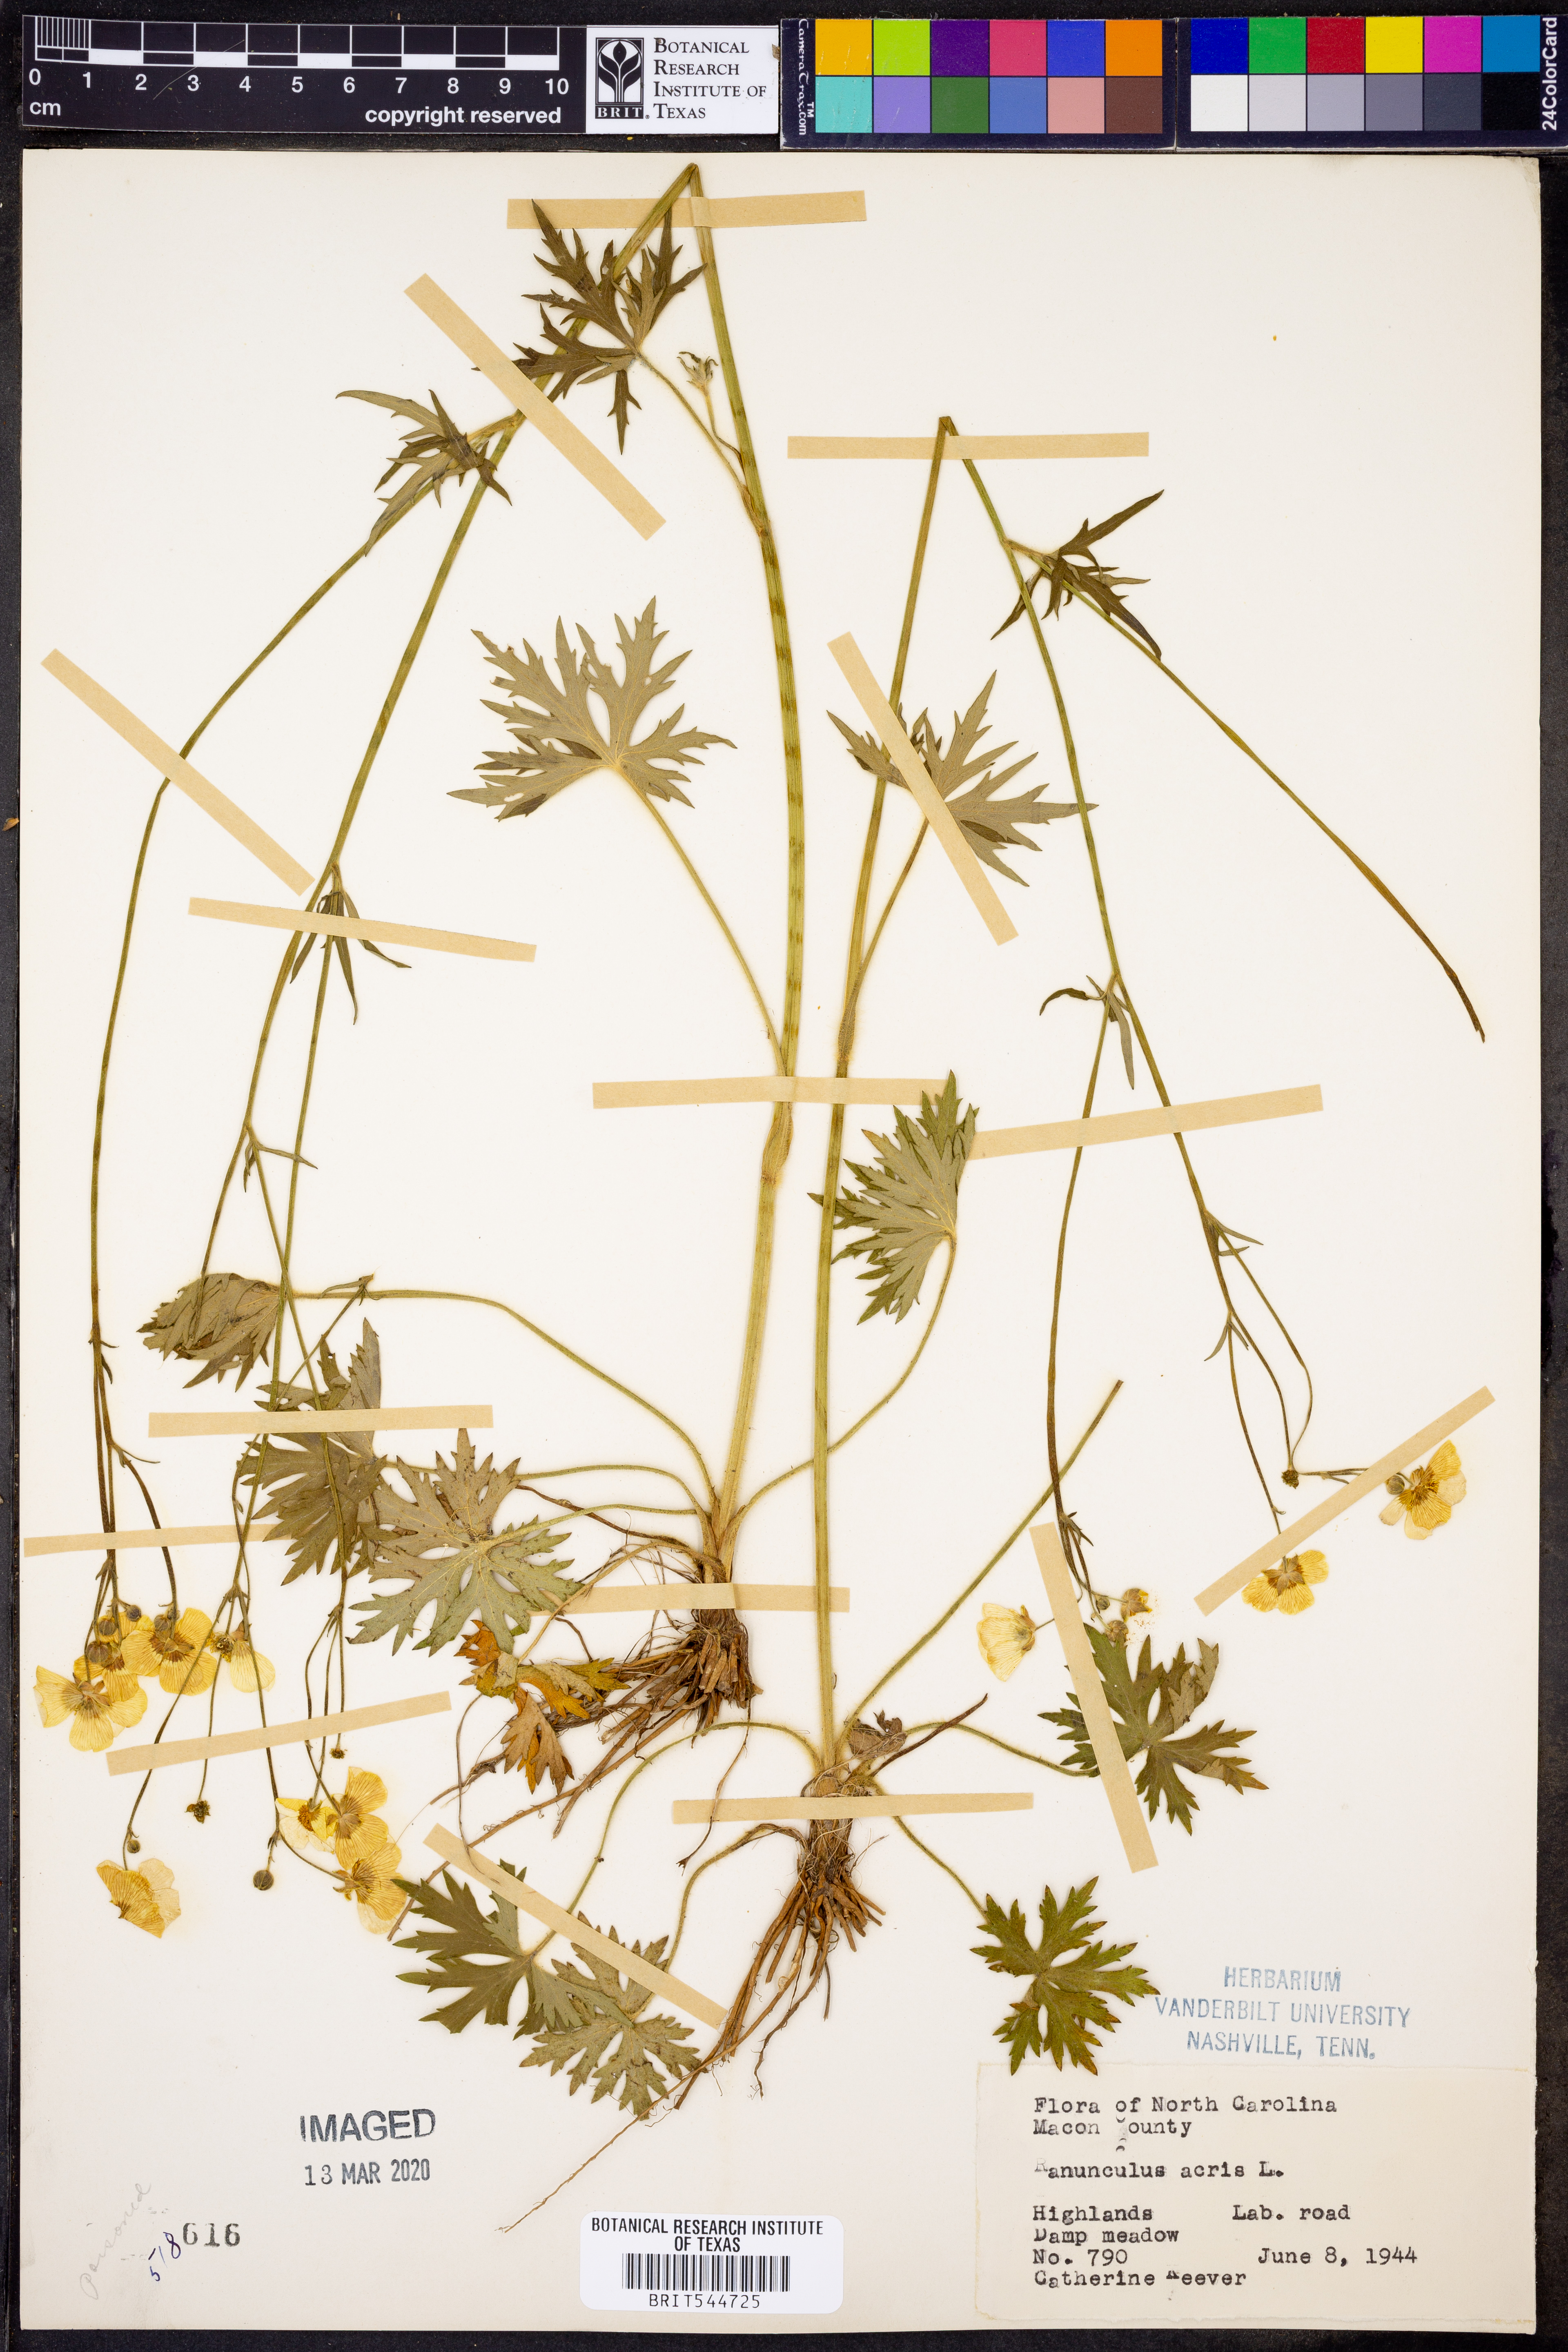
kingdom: Plantae
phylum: Tracheophyta
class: Magnoliopsida
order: Ranunculales
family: Ranunculaceae
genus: Ranunculus
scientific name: Ranunculus acris
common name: Meadow buttercup
